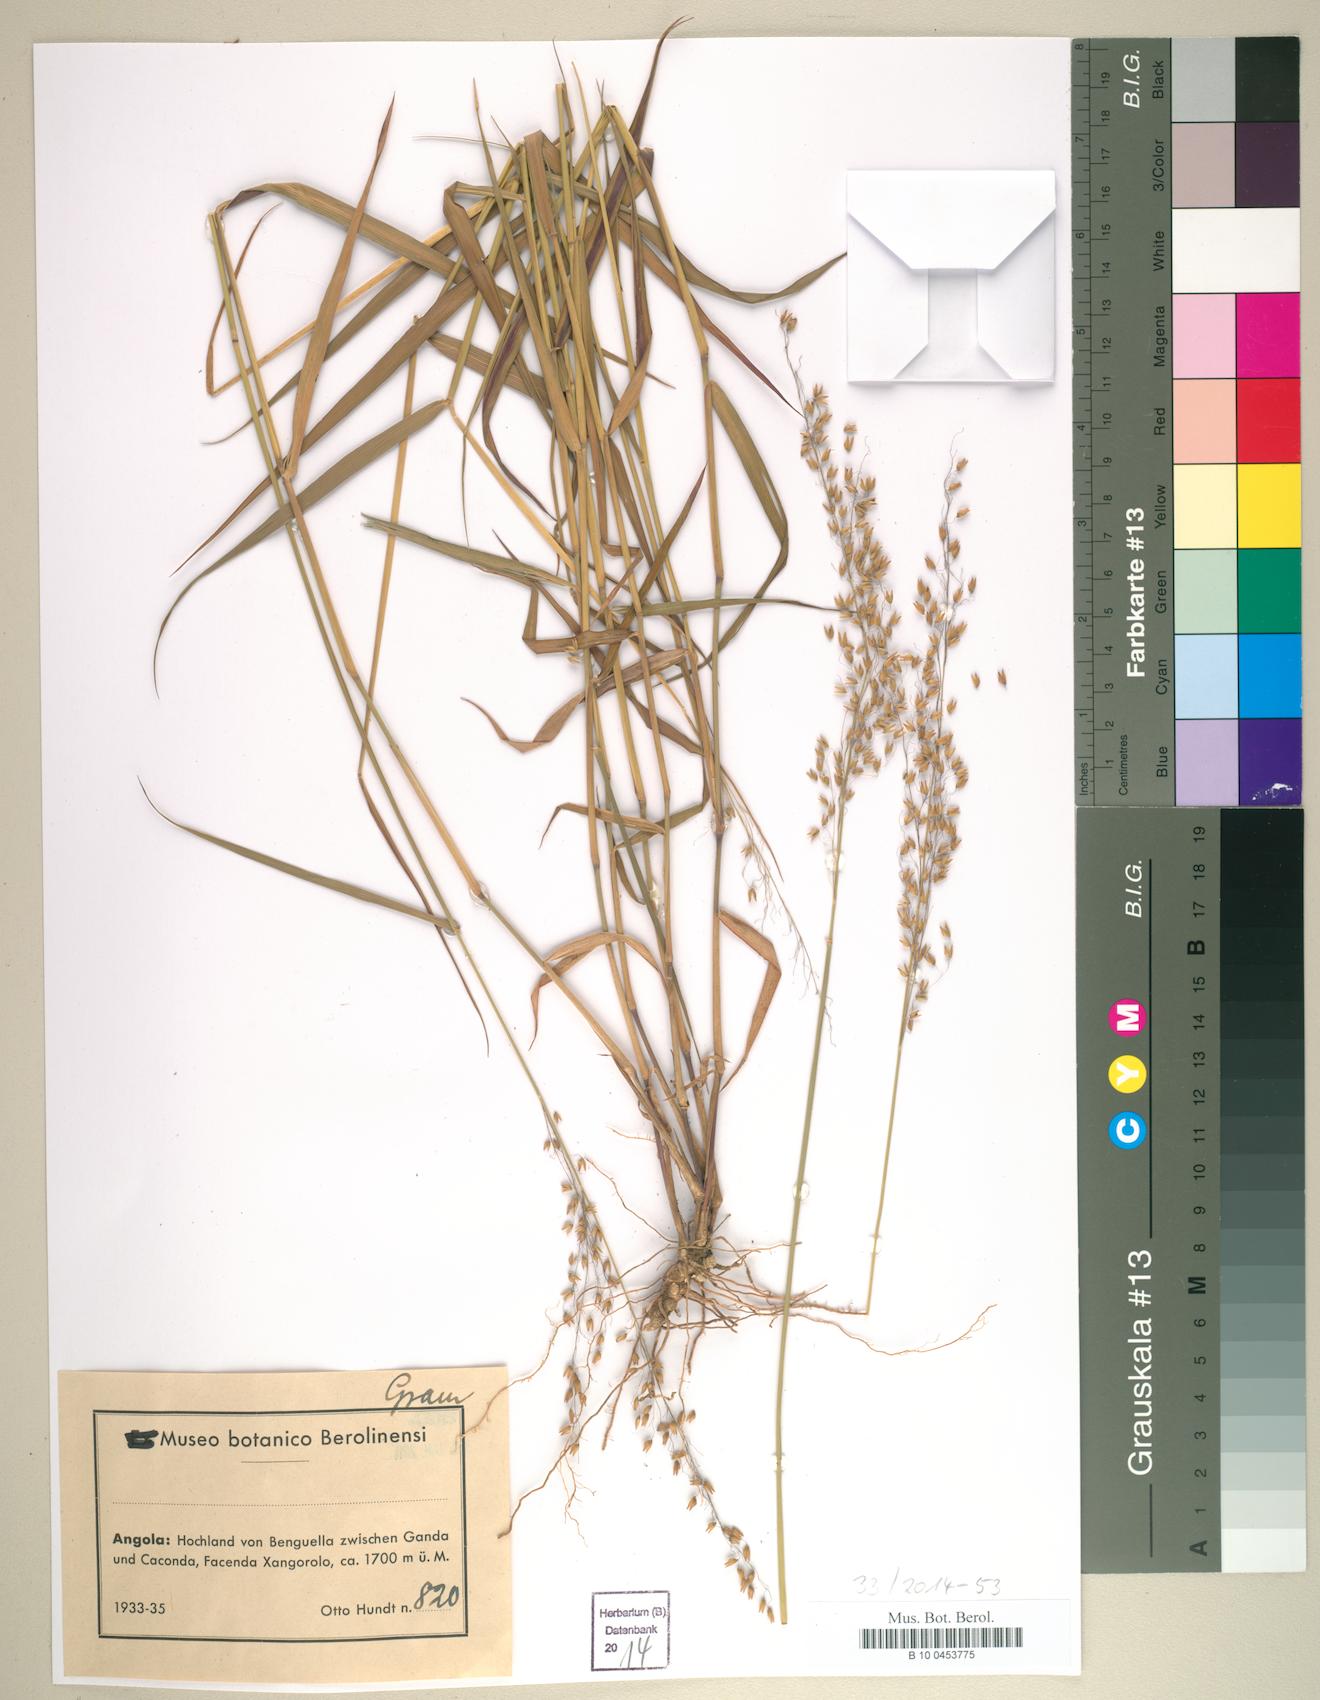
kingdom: Plantae
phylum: Tracheophyta
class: Liliopsida
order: Poales
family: Poaceae
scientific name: Poaceae
